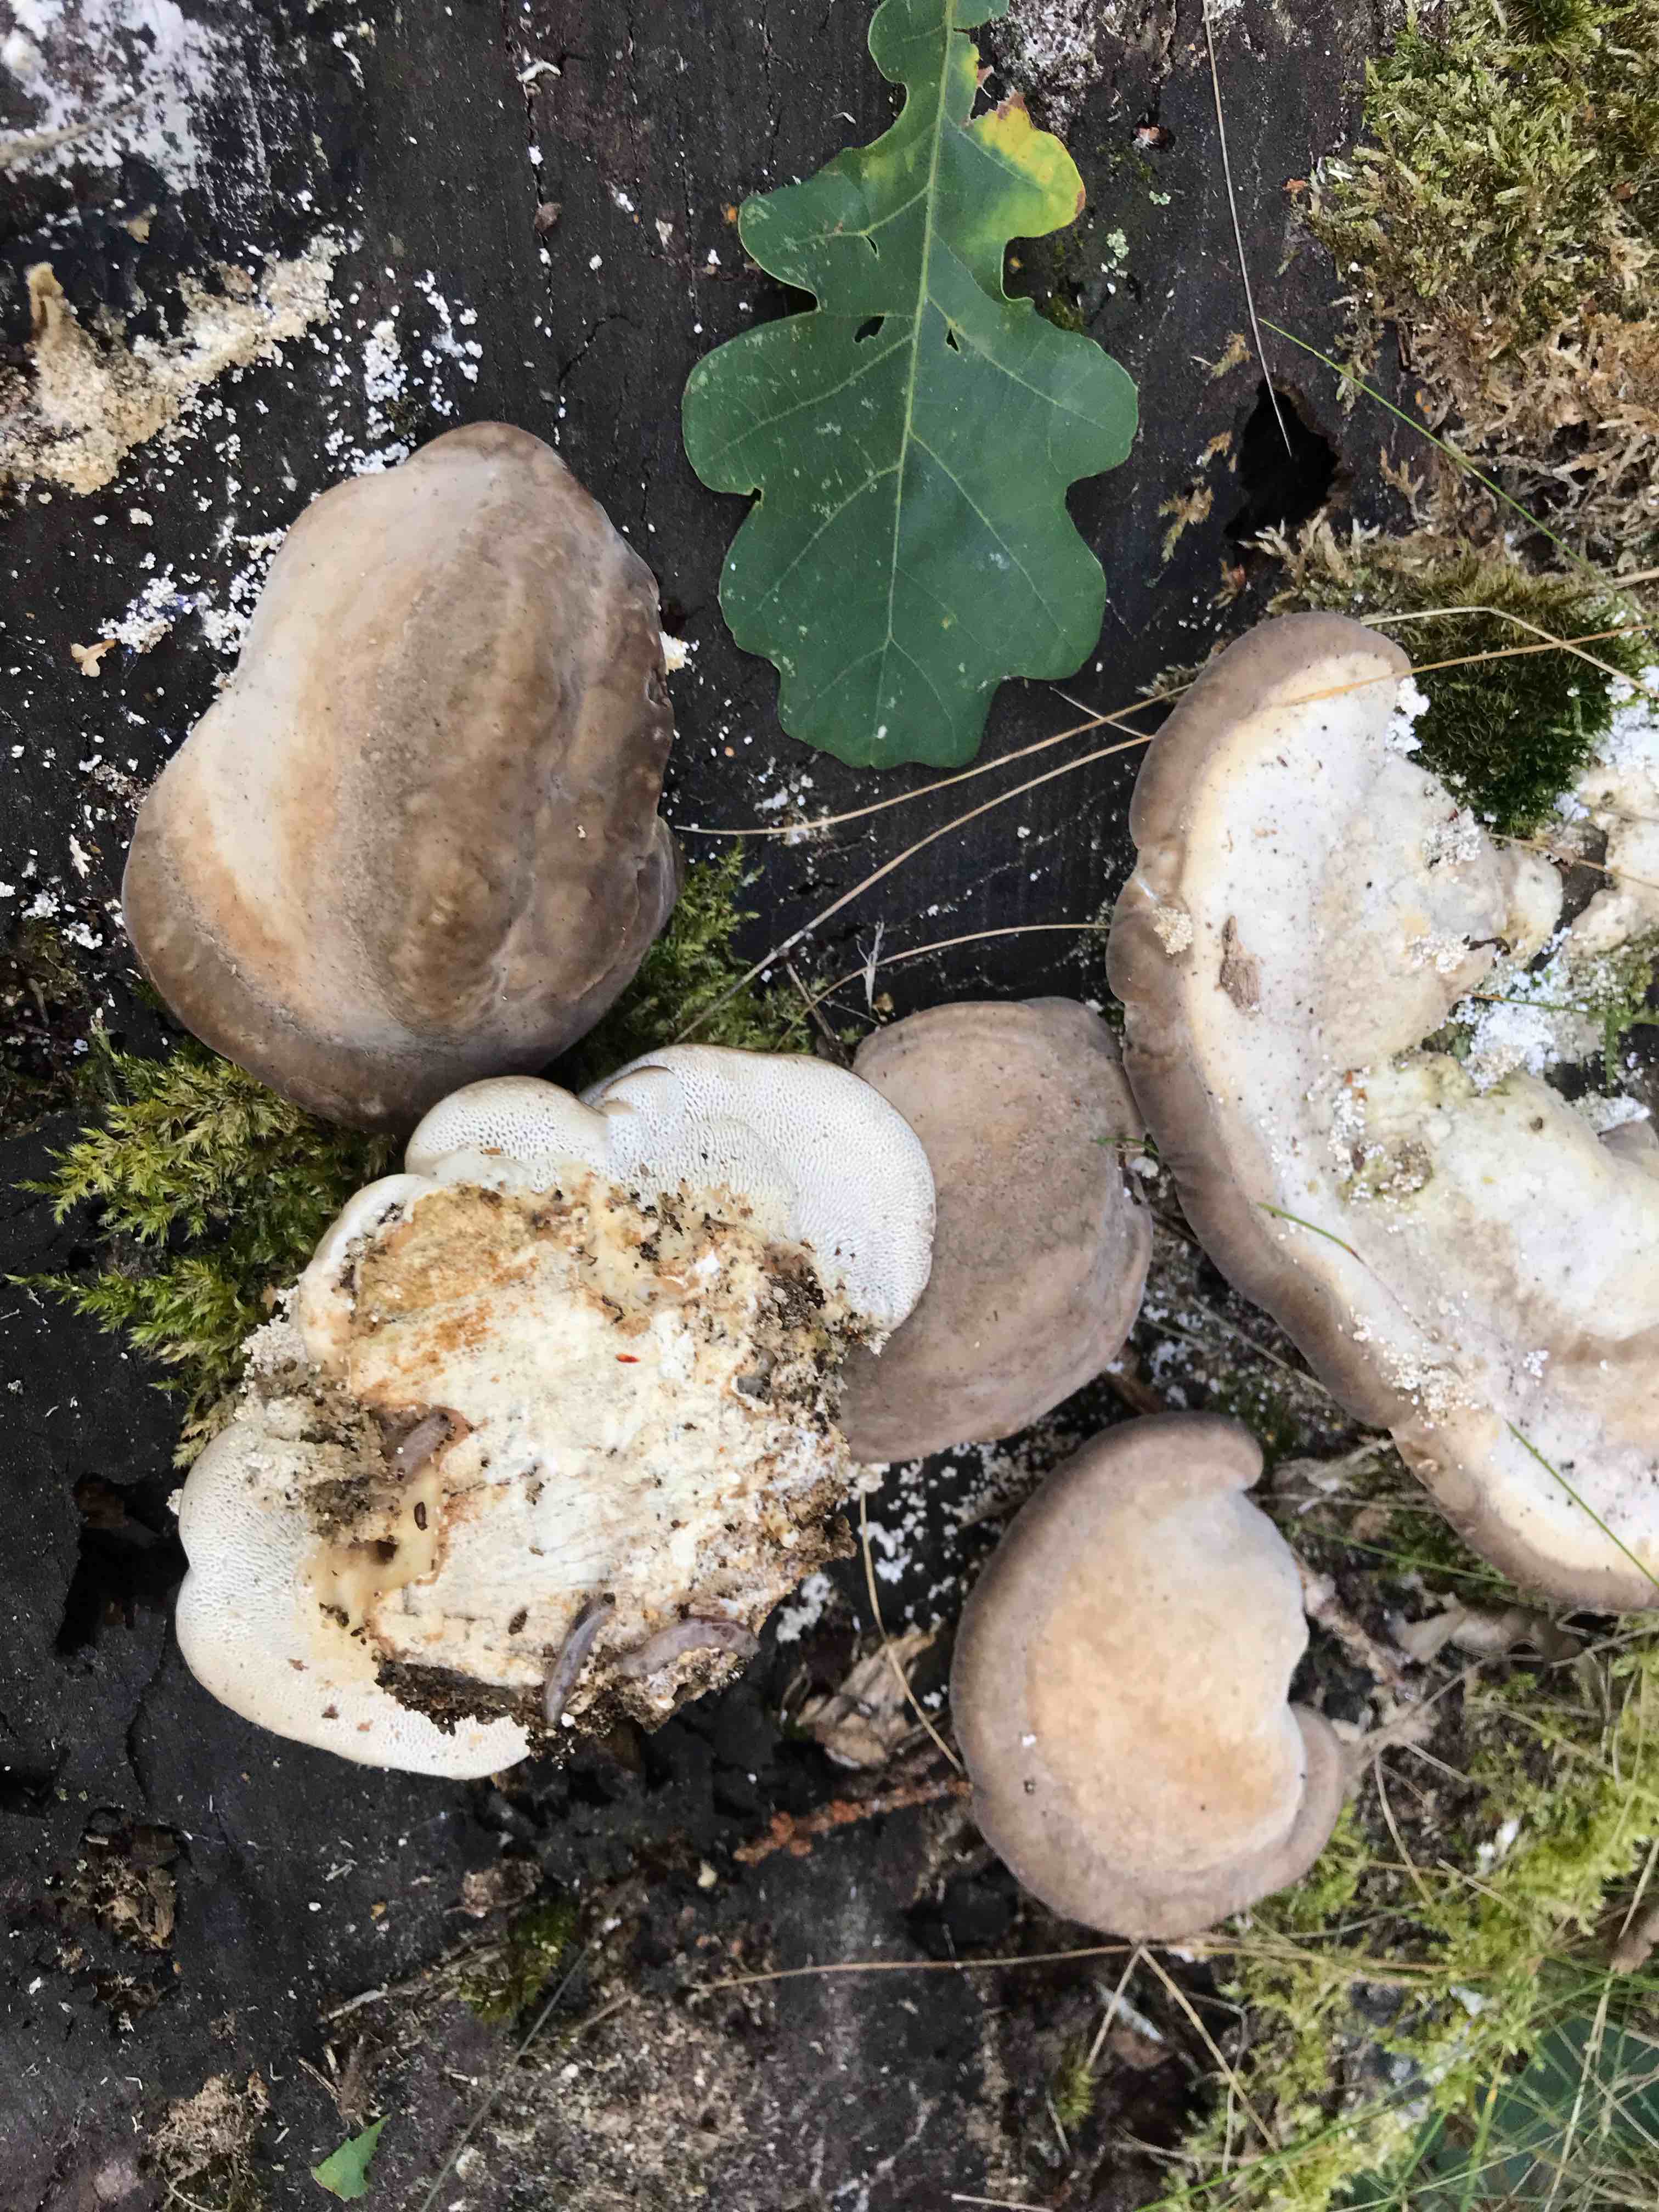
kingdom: Fungi
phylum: Basidiomycota
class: Agaricomycetes
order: Polyporales
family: Polyporaceae
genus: Trametes
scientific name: Trametes gibbosa
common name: puklet læderporesvamp
